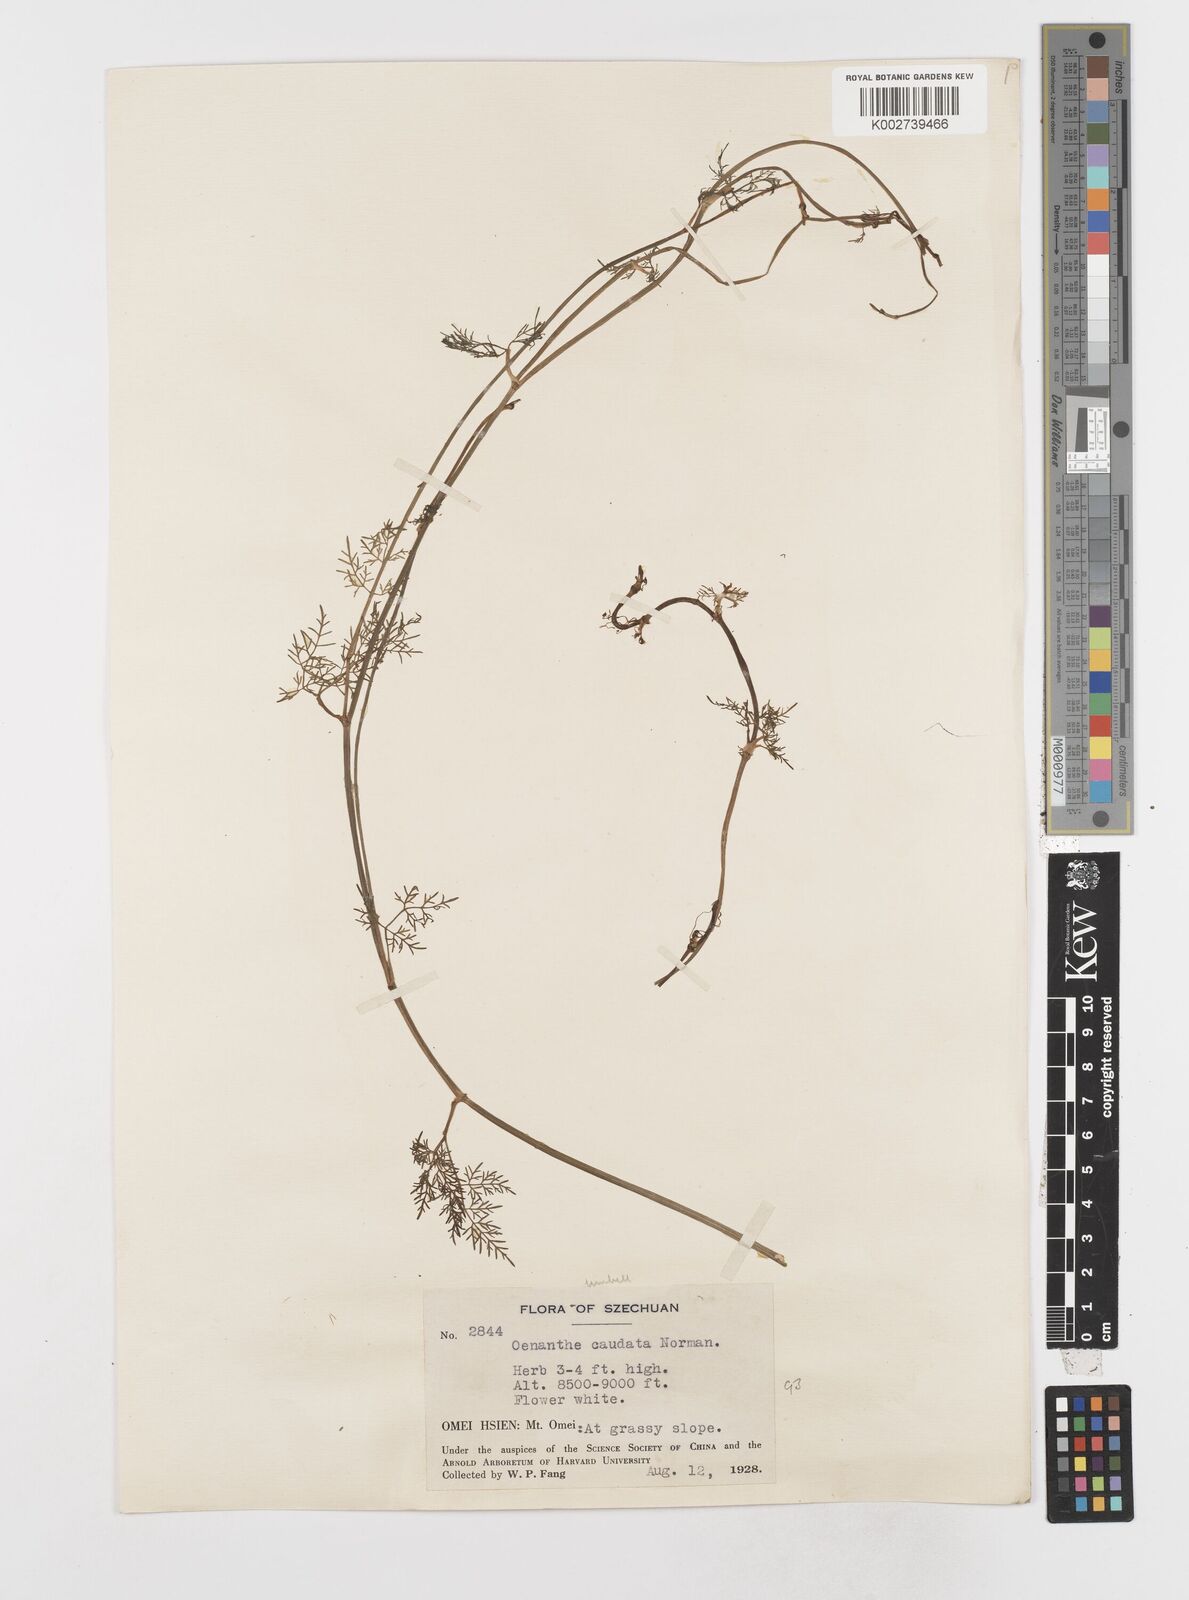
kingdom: Plantae
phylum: Tracheophyta
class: Magnoliopsida
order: Apiales
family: Apiaceae
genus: Oenanthe
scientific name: Oenanthe thomsonii
